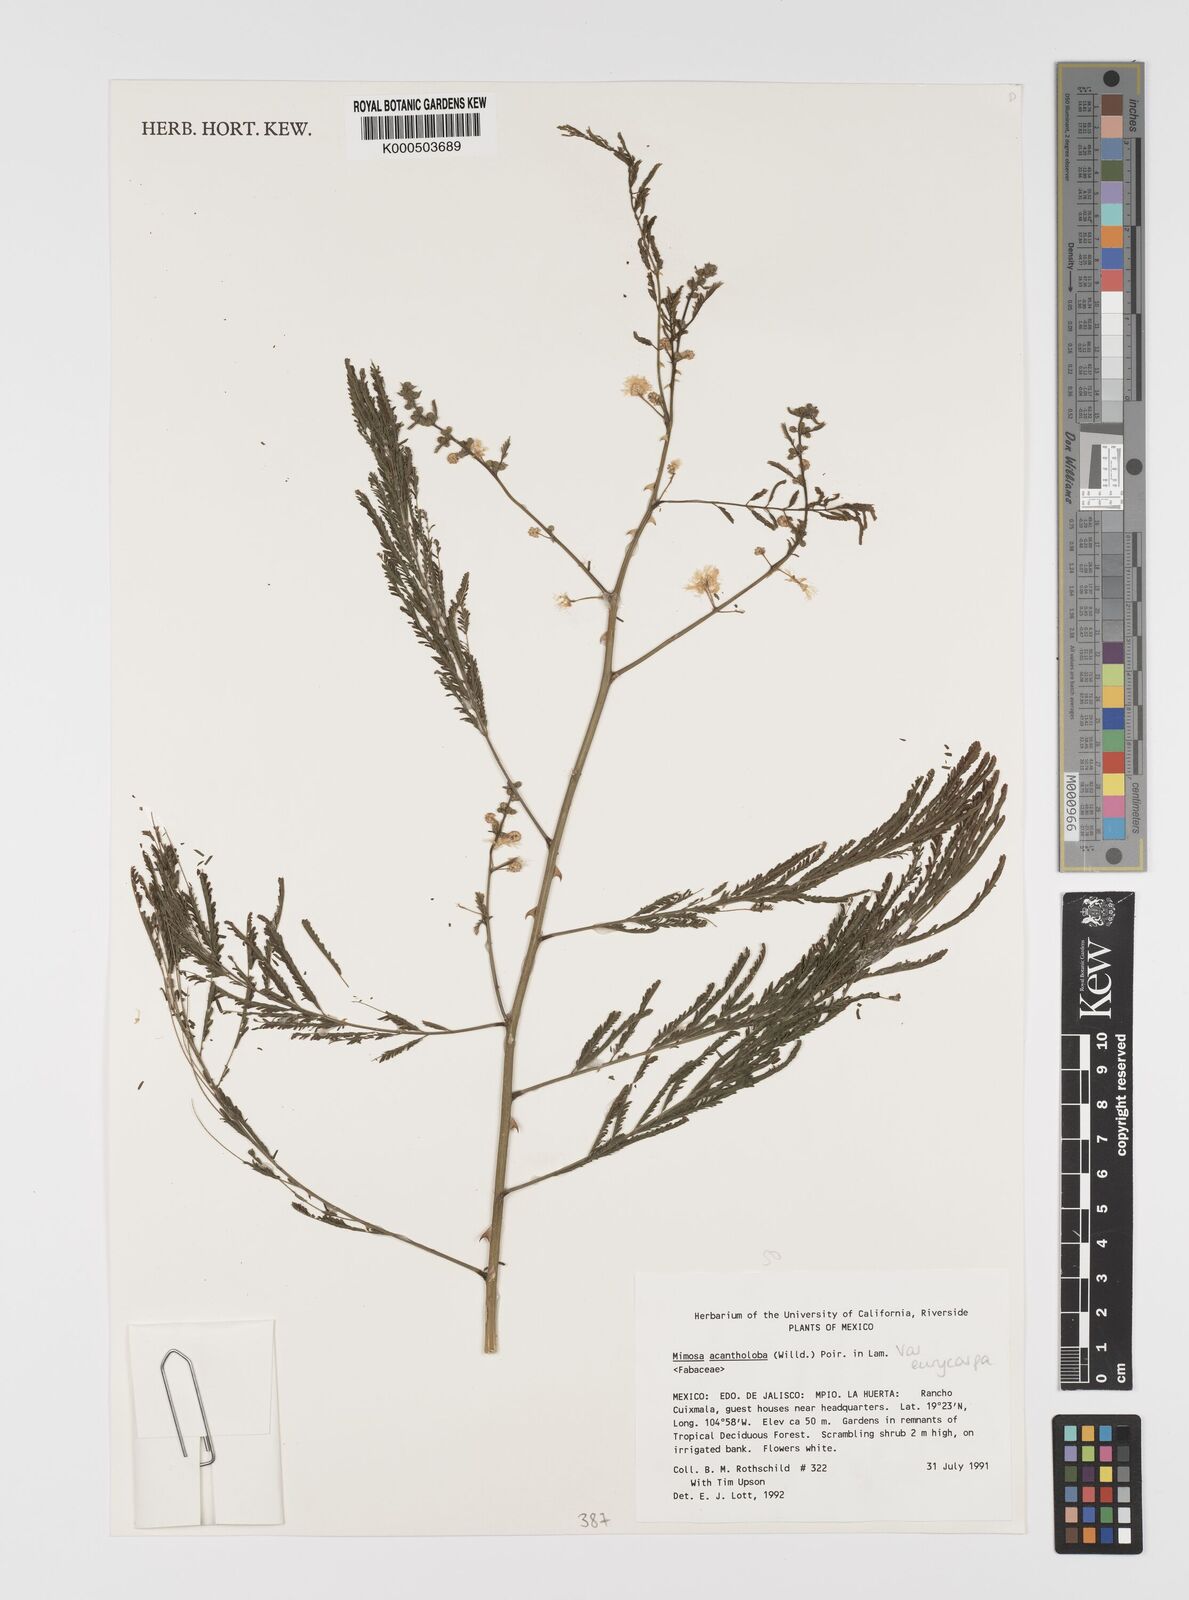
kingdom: Plantae
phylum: Tracheophyta
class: Magnoliopsida
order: Fabales
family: Fabaceae
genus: Mimosa
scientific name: Mimosa acantholoba
